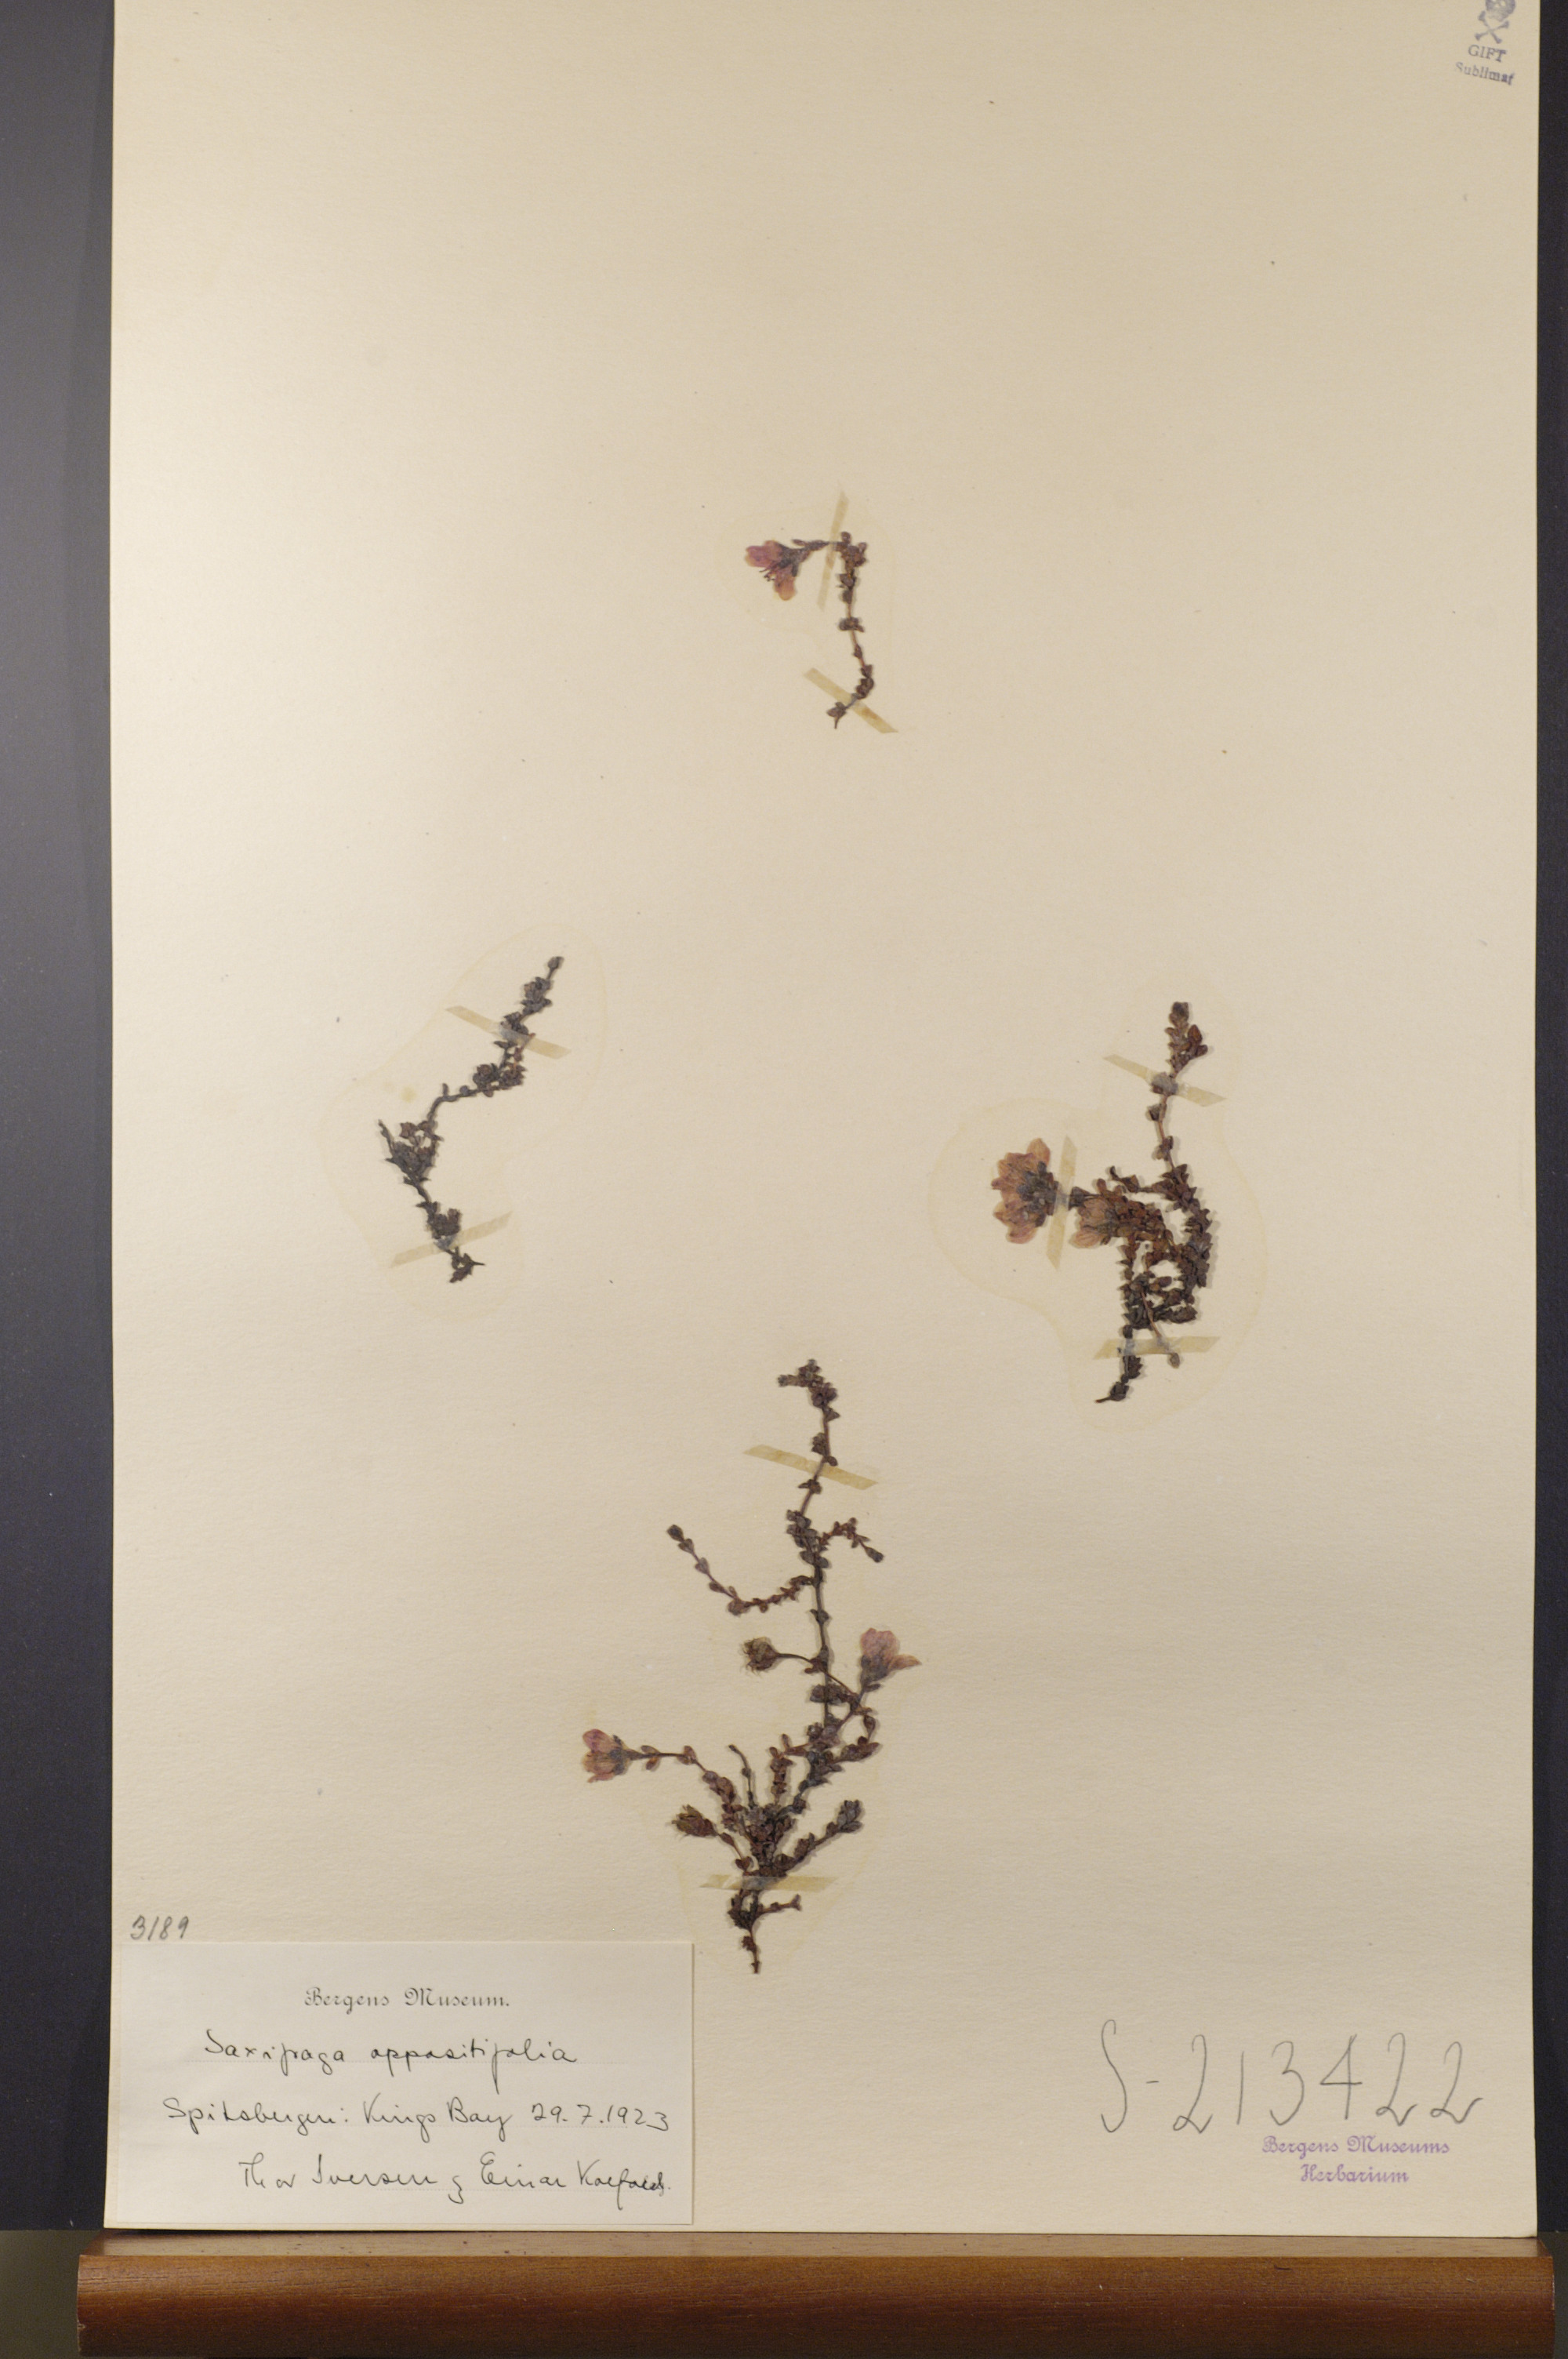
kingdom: Plantae
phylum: Tracheophyta
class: Magnoliopsida
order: Saxifragales
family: Saxifragaceae
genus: Saxifraga
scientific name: Saxifraga oppositifolia
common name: Purple saxifrage
